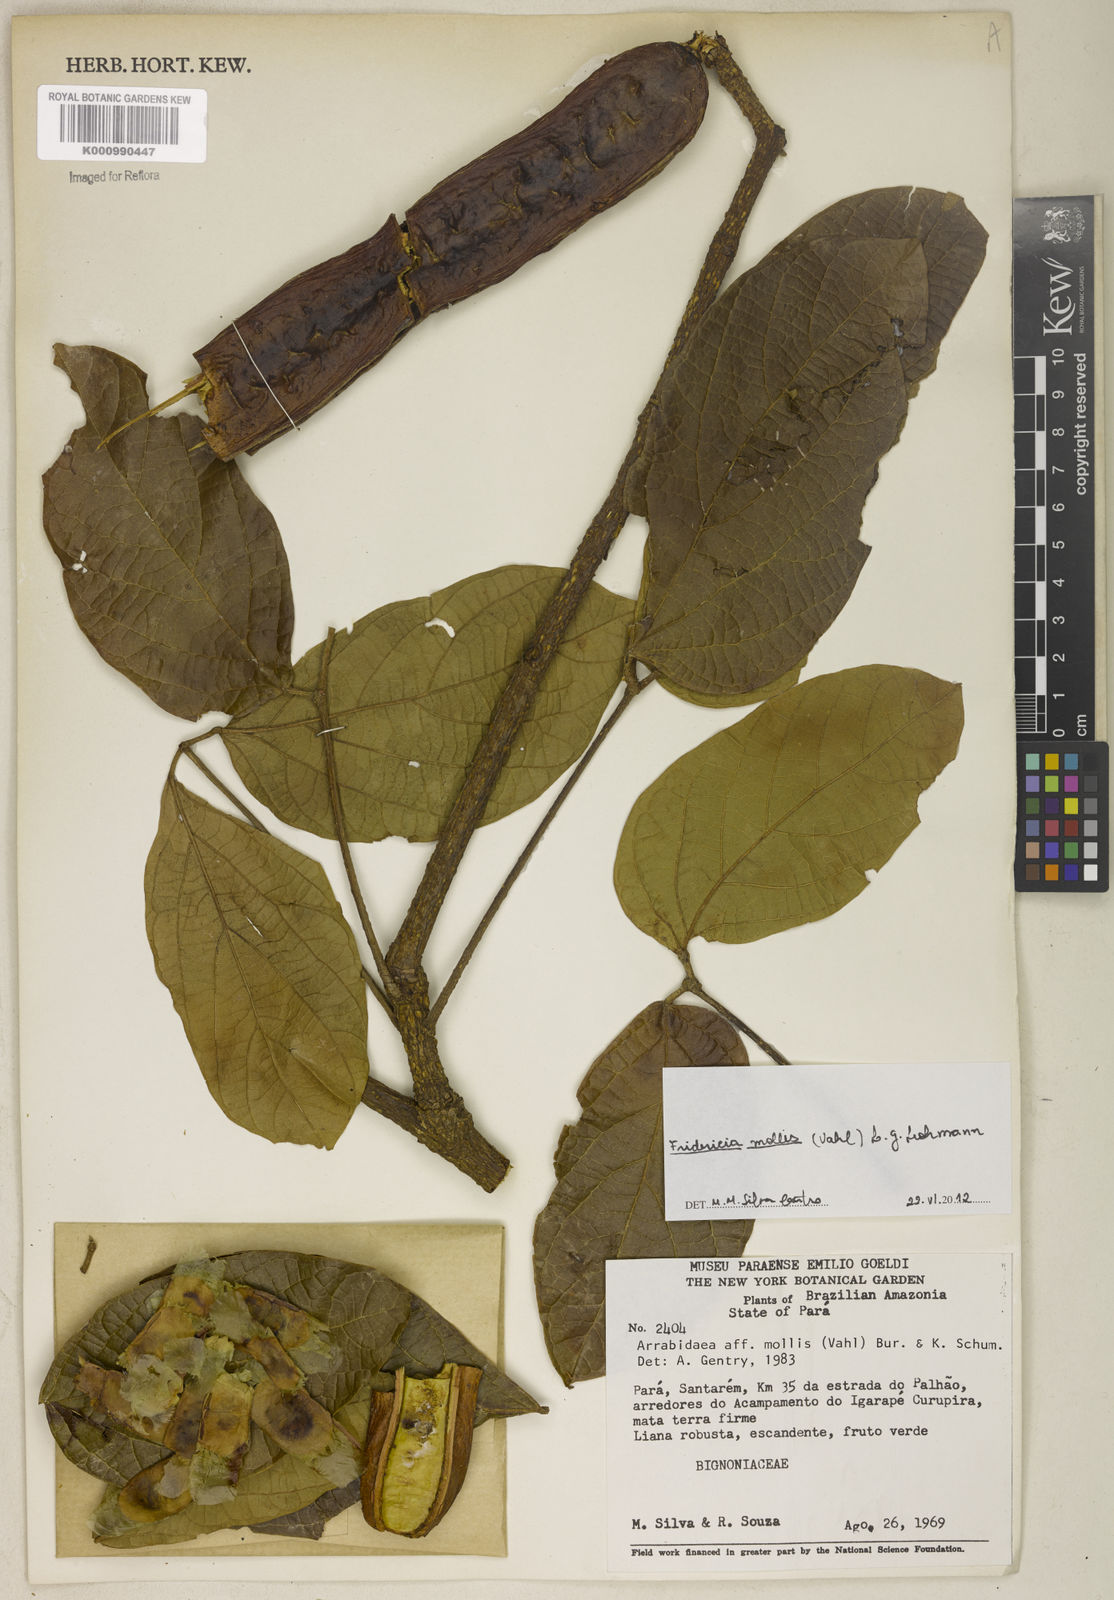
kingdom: Plantae
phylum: Tracheophyta
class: Magnoliopsida
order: Lamiales
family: Bignoniaceae
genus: Fridericia
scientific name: Fridericia mollis
